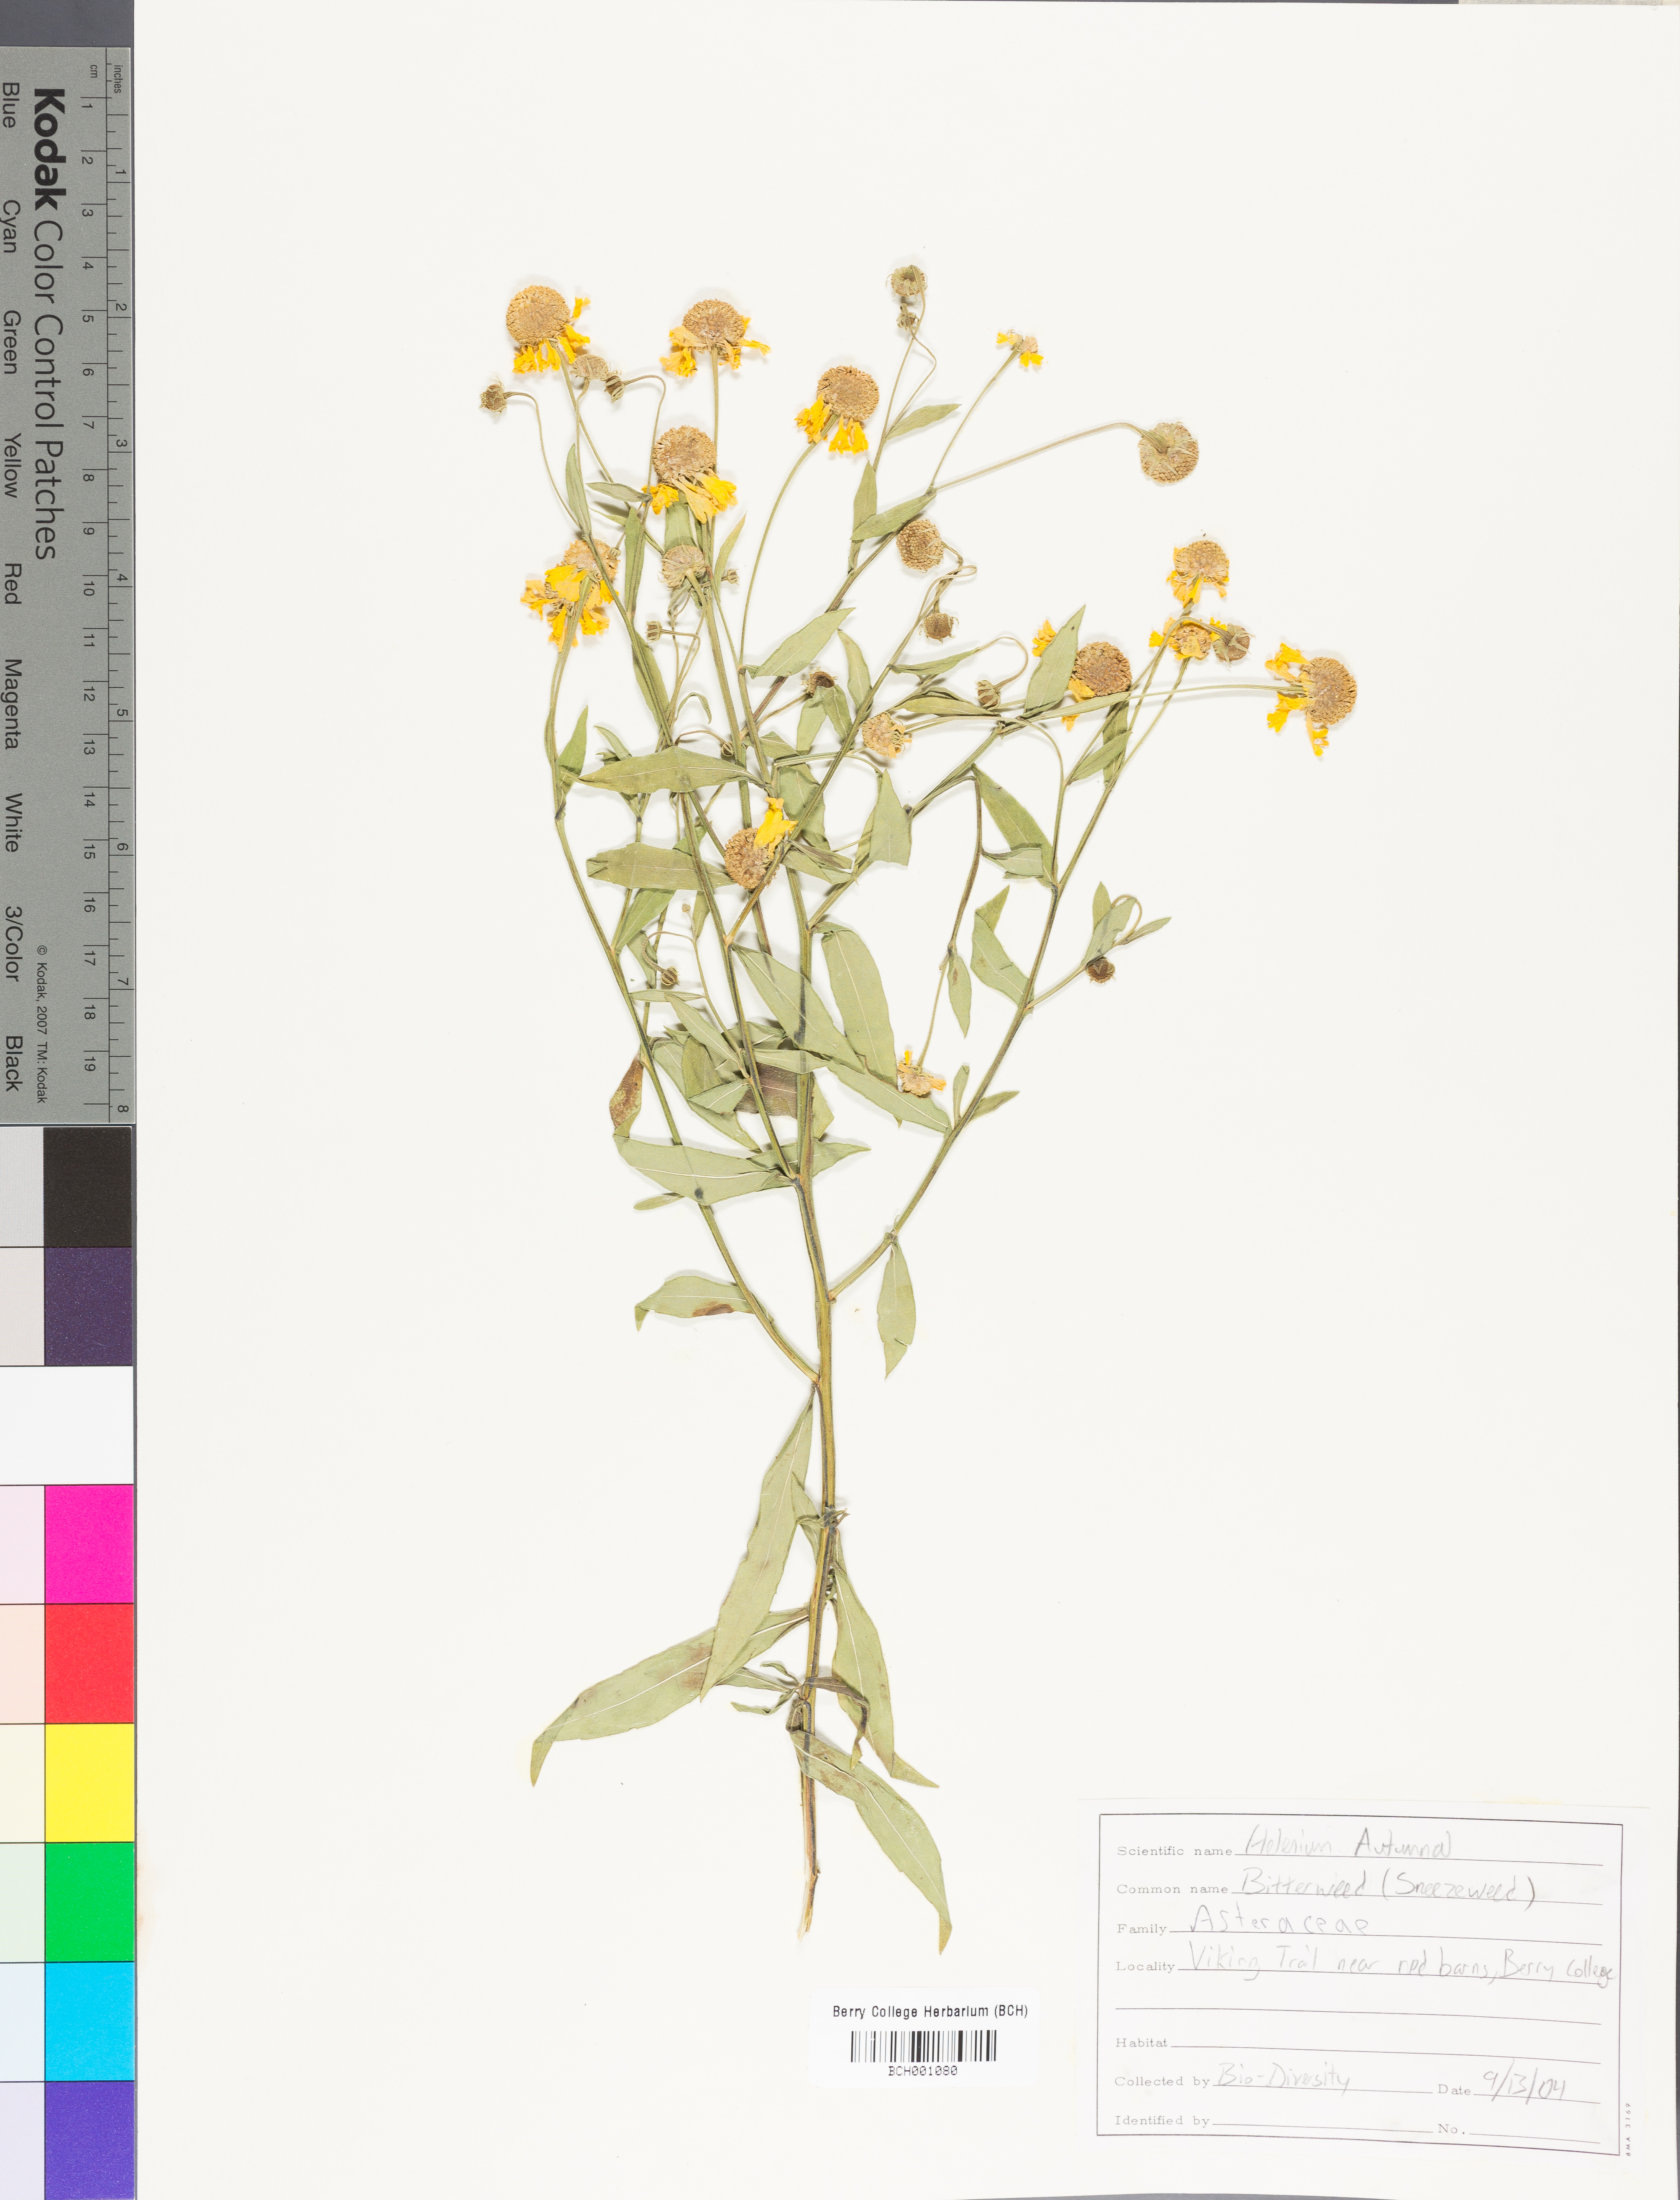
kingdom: Plantae
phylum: Tracheophyta
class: Magnoliopsida
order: Asterales
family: Asteraceae
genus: Helenium
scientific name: Helenium autumnale
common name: Sneezeweed
